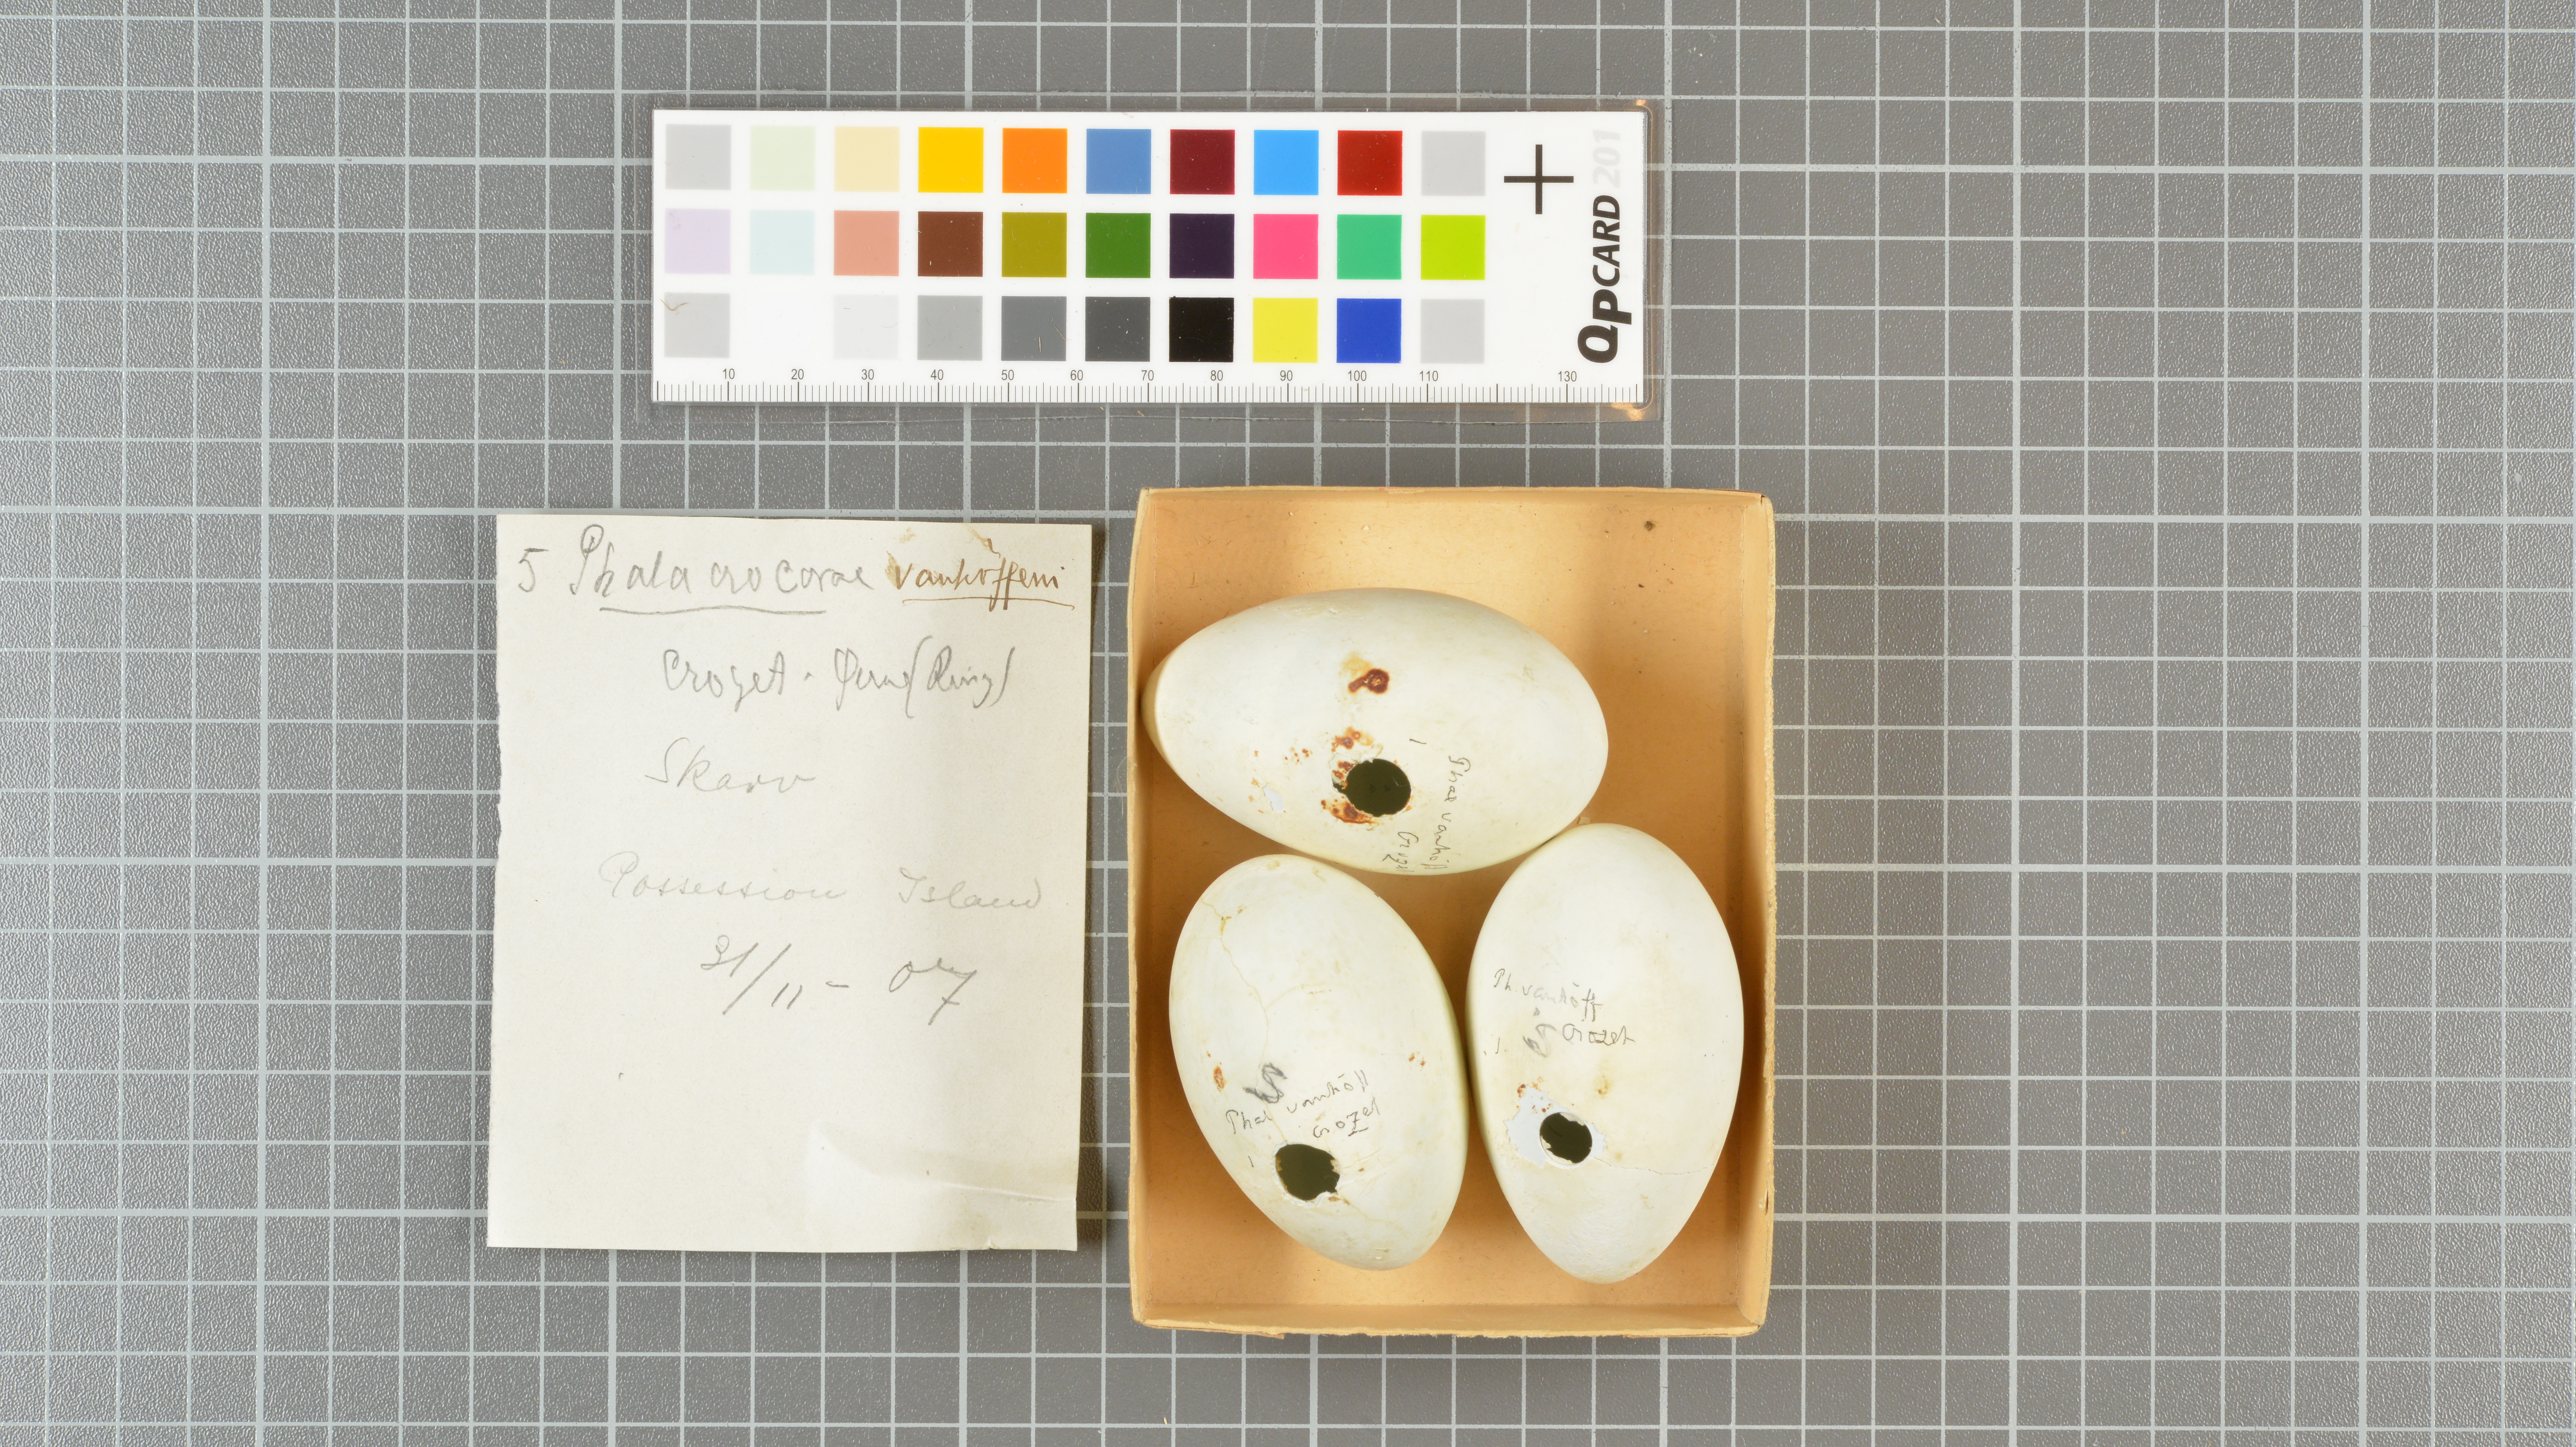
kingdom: Animalia
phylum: Chordata
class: Aves
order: Suliformes
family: Phalacrocoracidae
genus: Leucocarbo
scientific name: Leucocarbo albiventer
